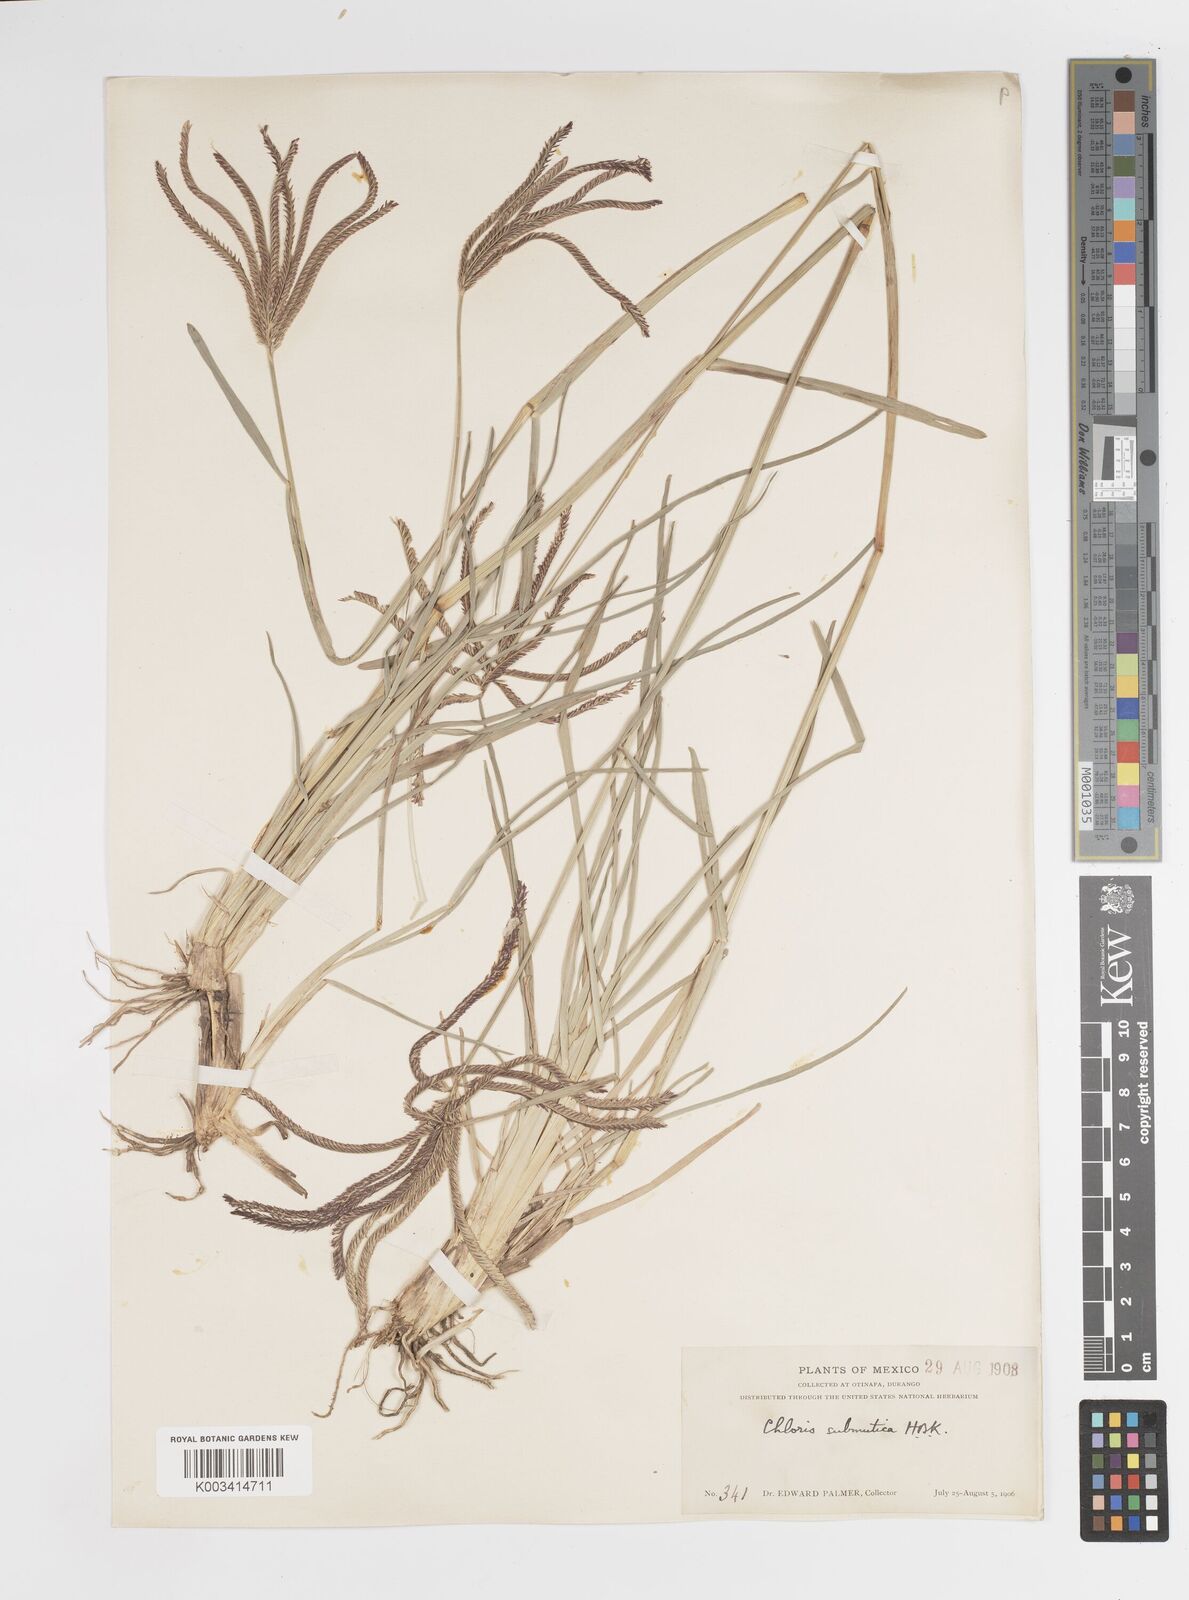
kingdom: Plantae
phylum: Tracheophyta
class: Liliopsida
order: Poales
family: Poaceae
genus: Chloris
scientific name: Chloris submutica
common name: Mexican windmill grass
